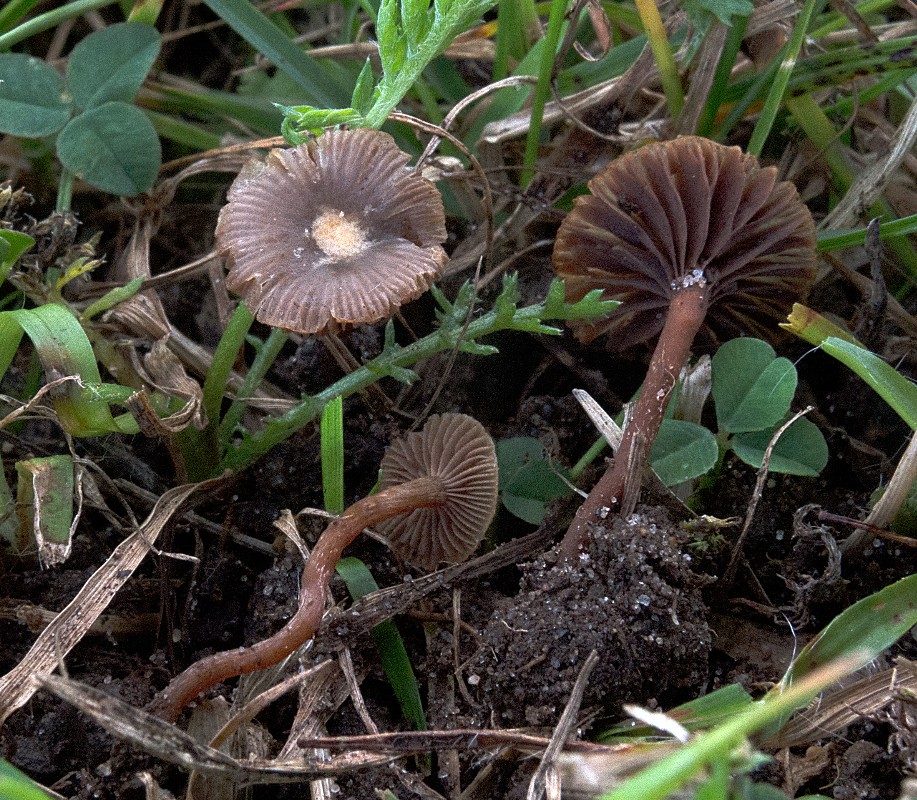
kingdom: Fungi
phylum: Basidiomycota
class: Agaricomycetes
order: Agaricales
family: Strophariaceae
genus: Deconica
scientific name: Deconica micropora
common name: småsporet stråhat
